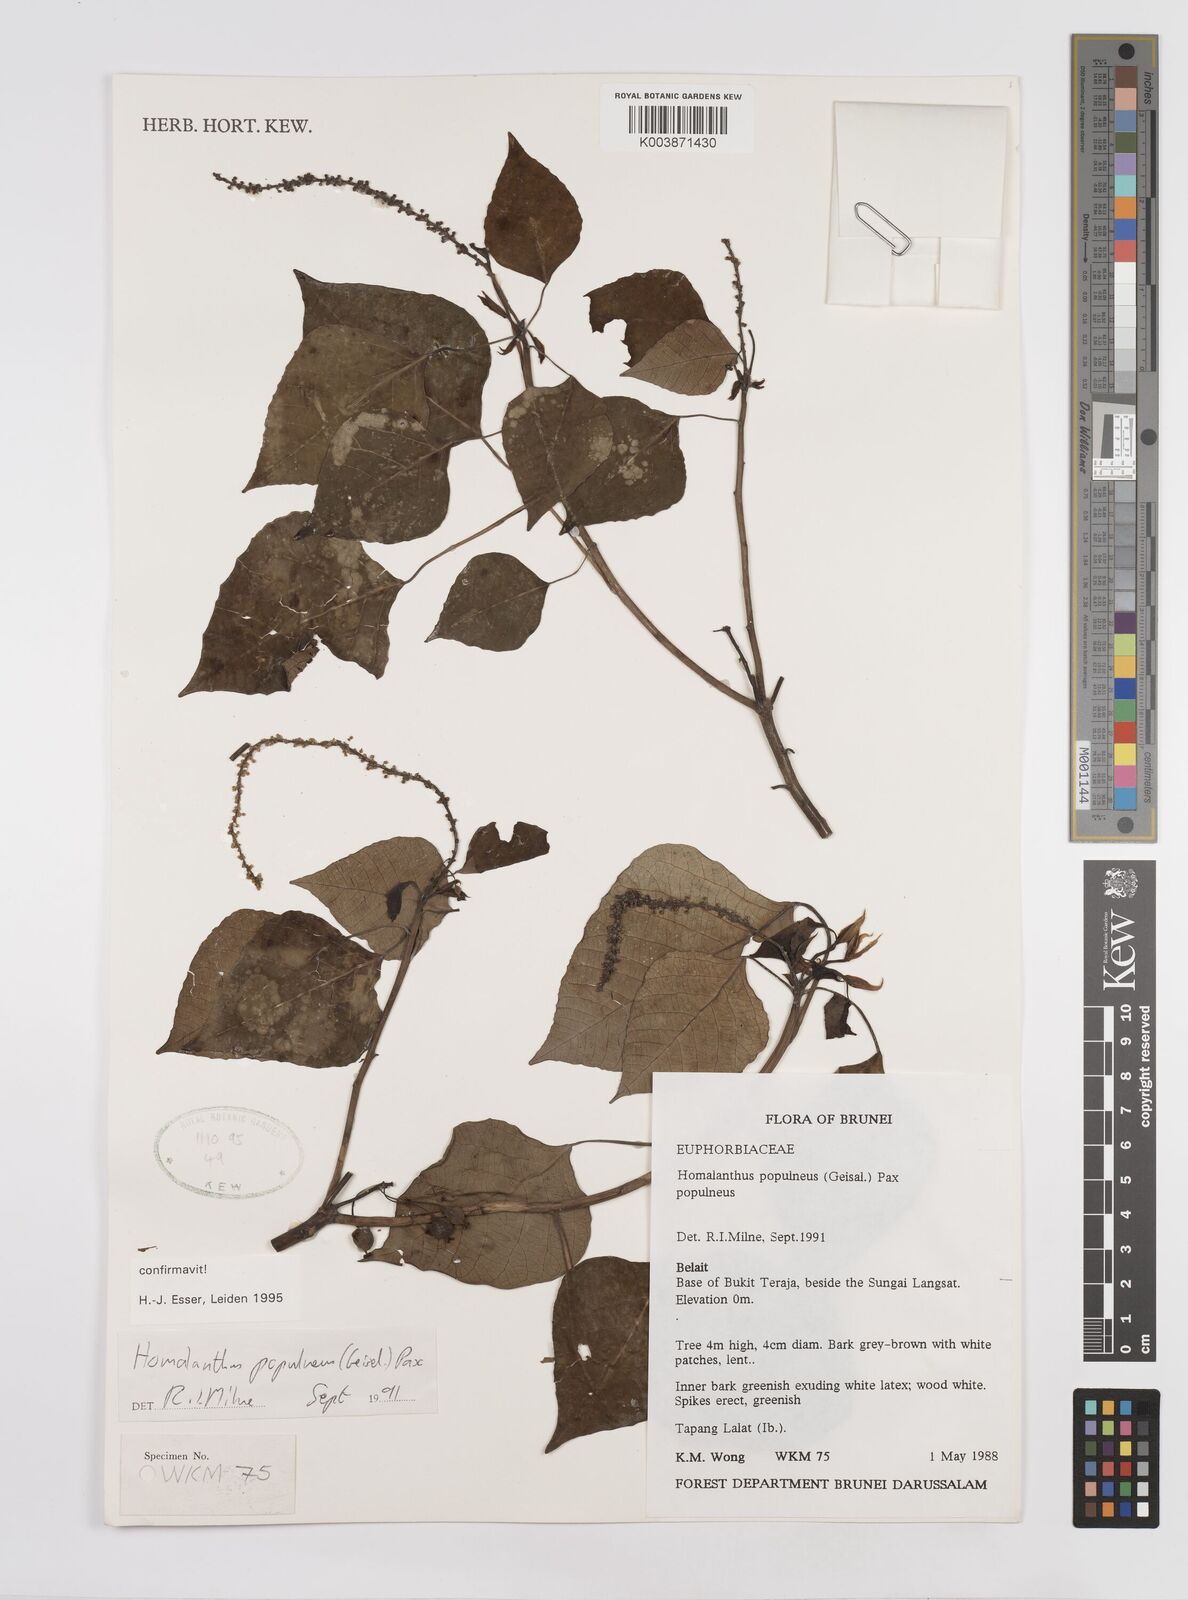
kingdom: Plantae
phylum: Tracheophyta
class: Magnoliopsida
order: Malpighiales
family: Euphorbiaceae
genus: Homalanthus
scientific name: Homalanthus populneus
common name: Spurge
